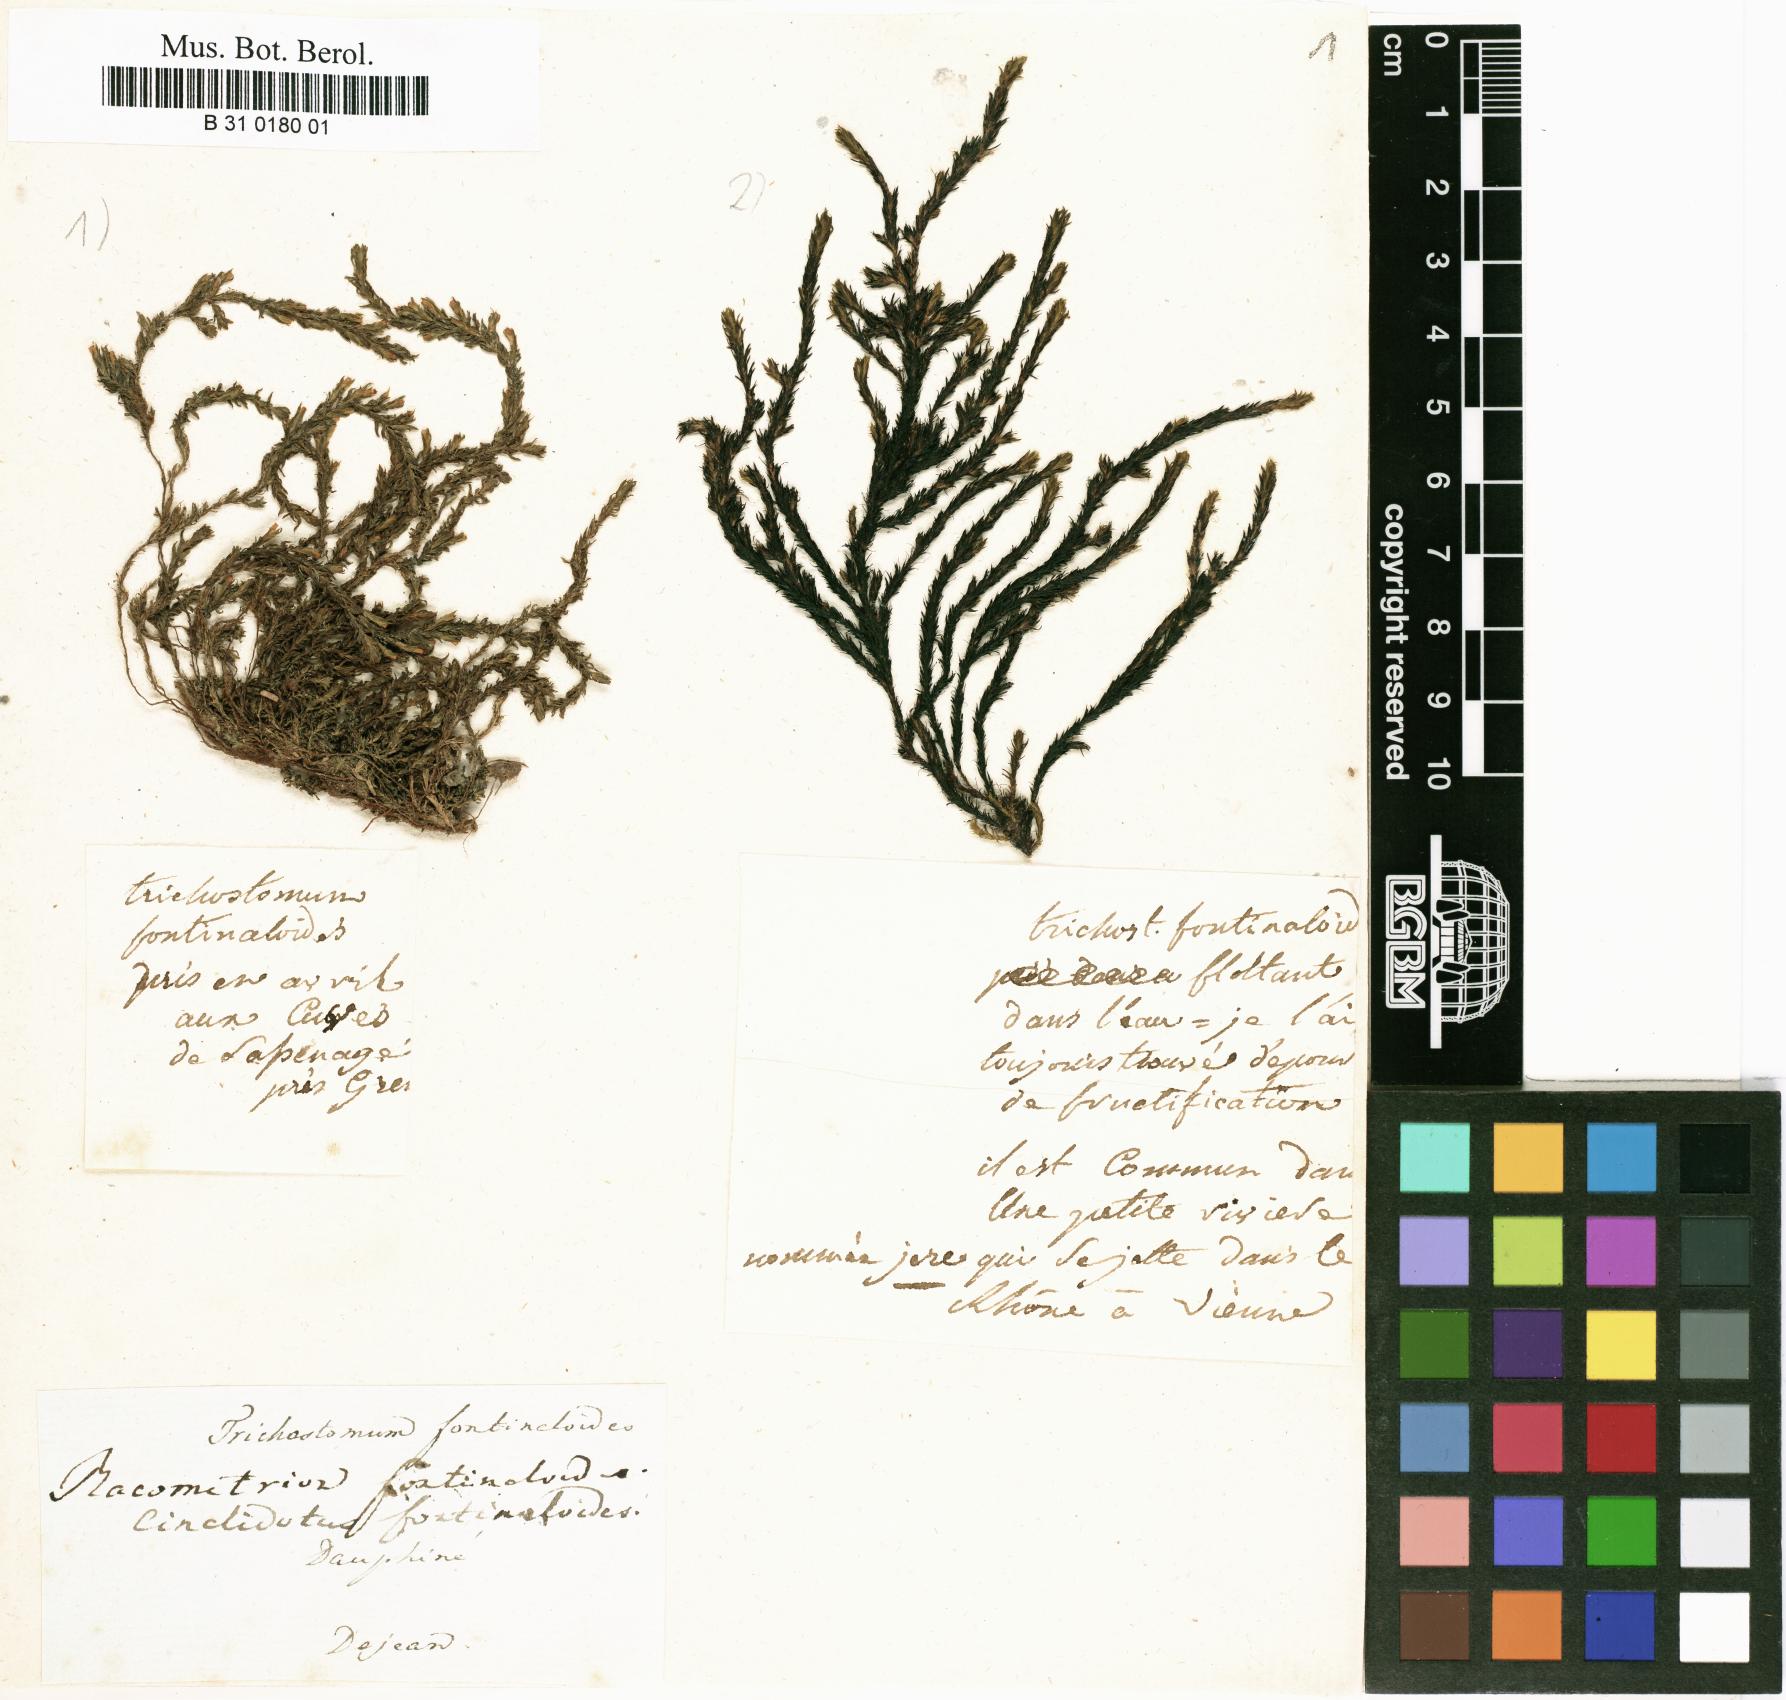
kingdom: Plantae
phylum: Bryophyta
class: Bryopsida
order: Pottiales
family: Pottiaceae
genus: Cinclidotus
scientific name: Cinclidotus fontinaloides
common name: Smaller lattice-moss
